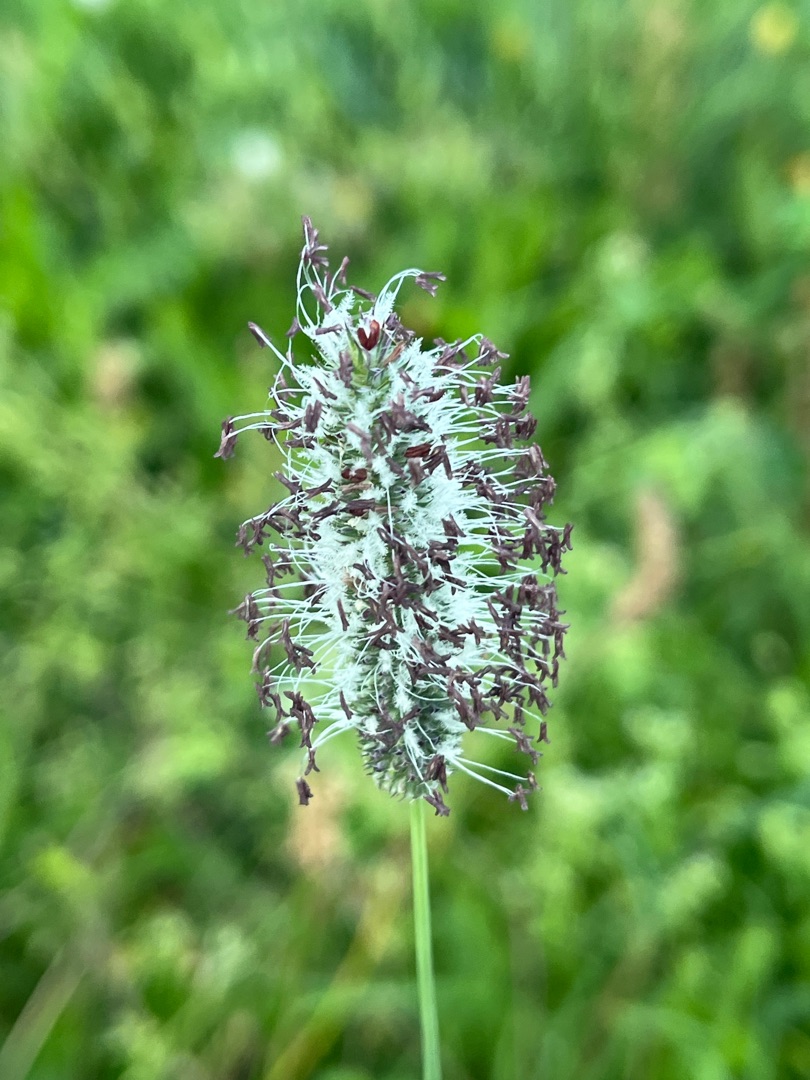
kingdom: Plantae
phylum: Tracheophyta
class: Liliopsida
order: Poales
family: Poaceae
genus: Phleum
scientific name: Phleum pratense
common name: Eng-rottehale
